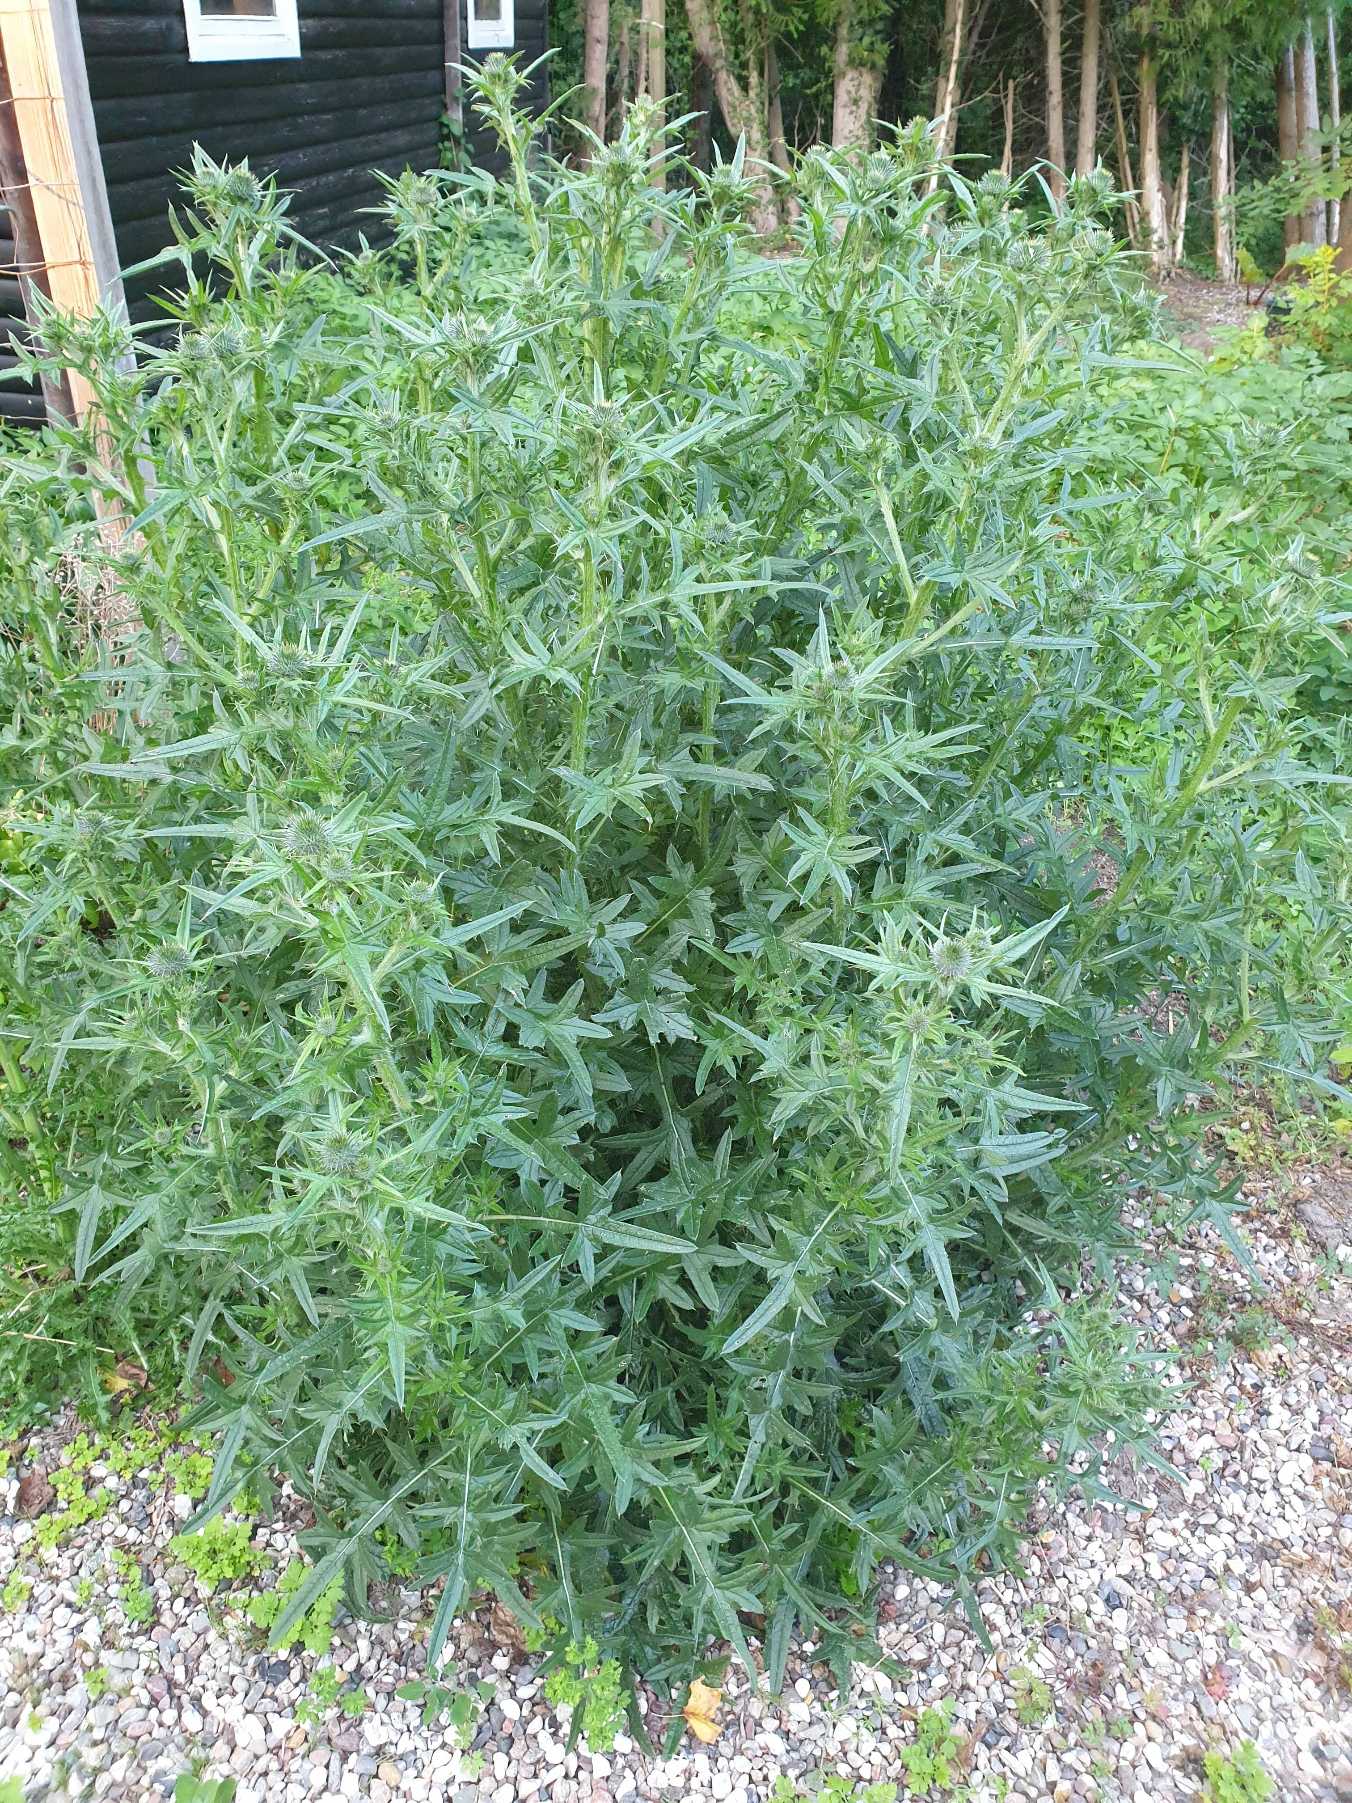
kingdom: Plantae
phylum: Tracheophyta
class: Magnoliopsida
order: Asterales
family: Asteraceae
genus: Cirsium
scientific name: Cirsium vulgare
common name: Horse-tidsel
